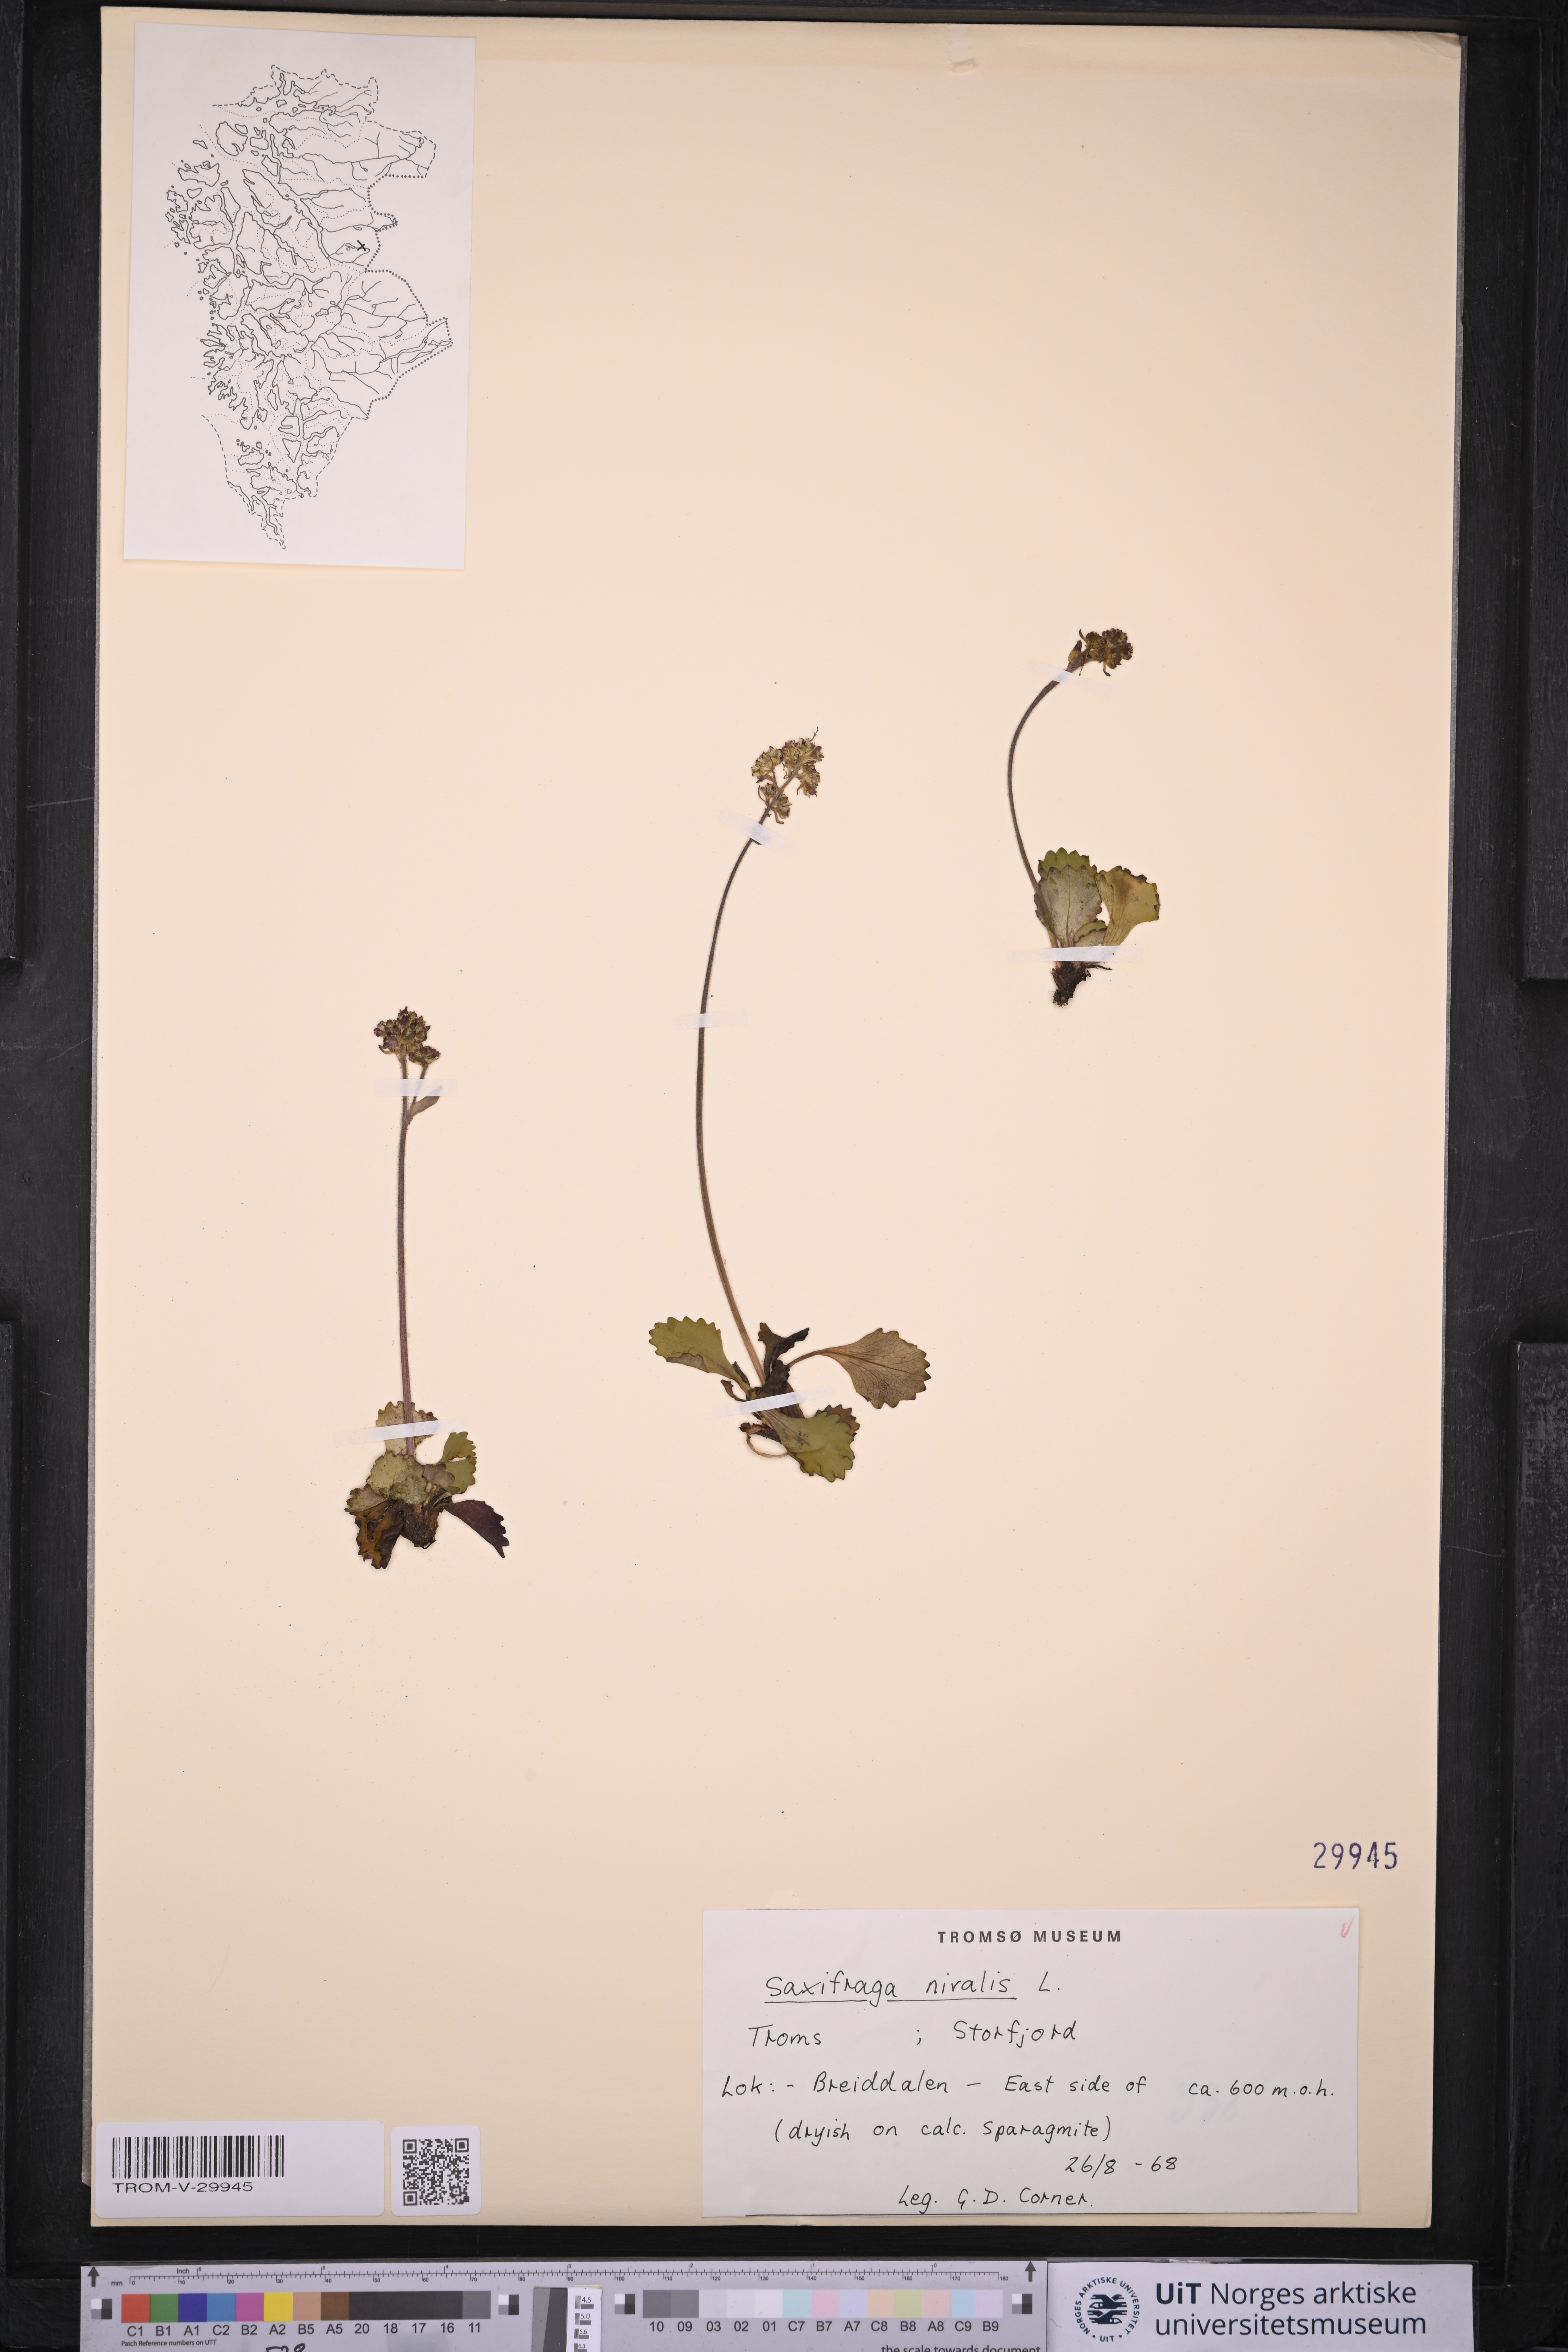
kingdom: Plantae
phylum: Tracheophyta
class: Magnoliopsida
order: Saxifragales
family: Saxifragaceae
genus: Micranthes
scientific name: Micranthes nivalis
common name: Alpine saxifrage
